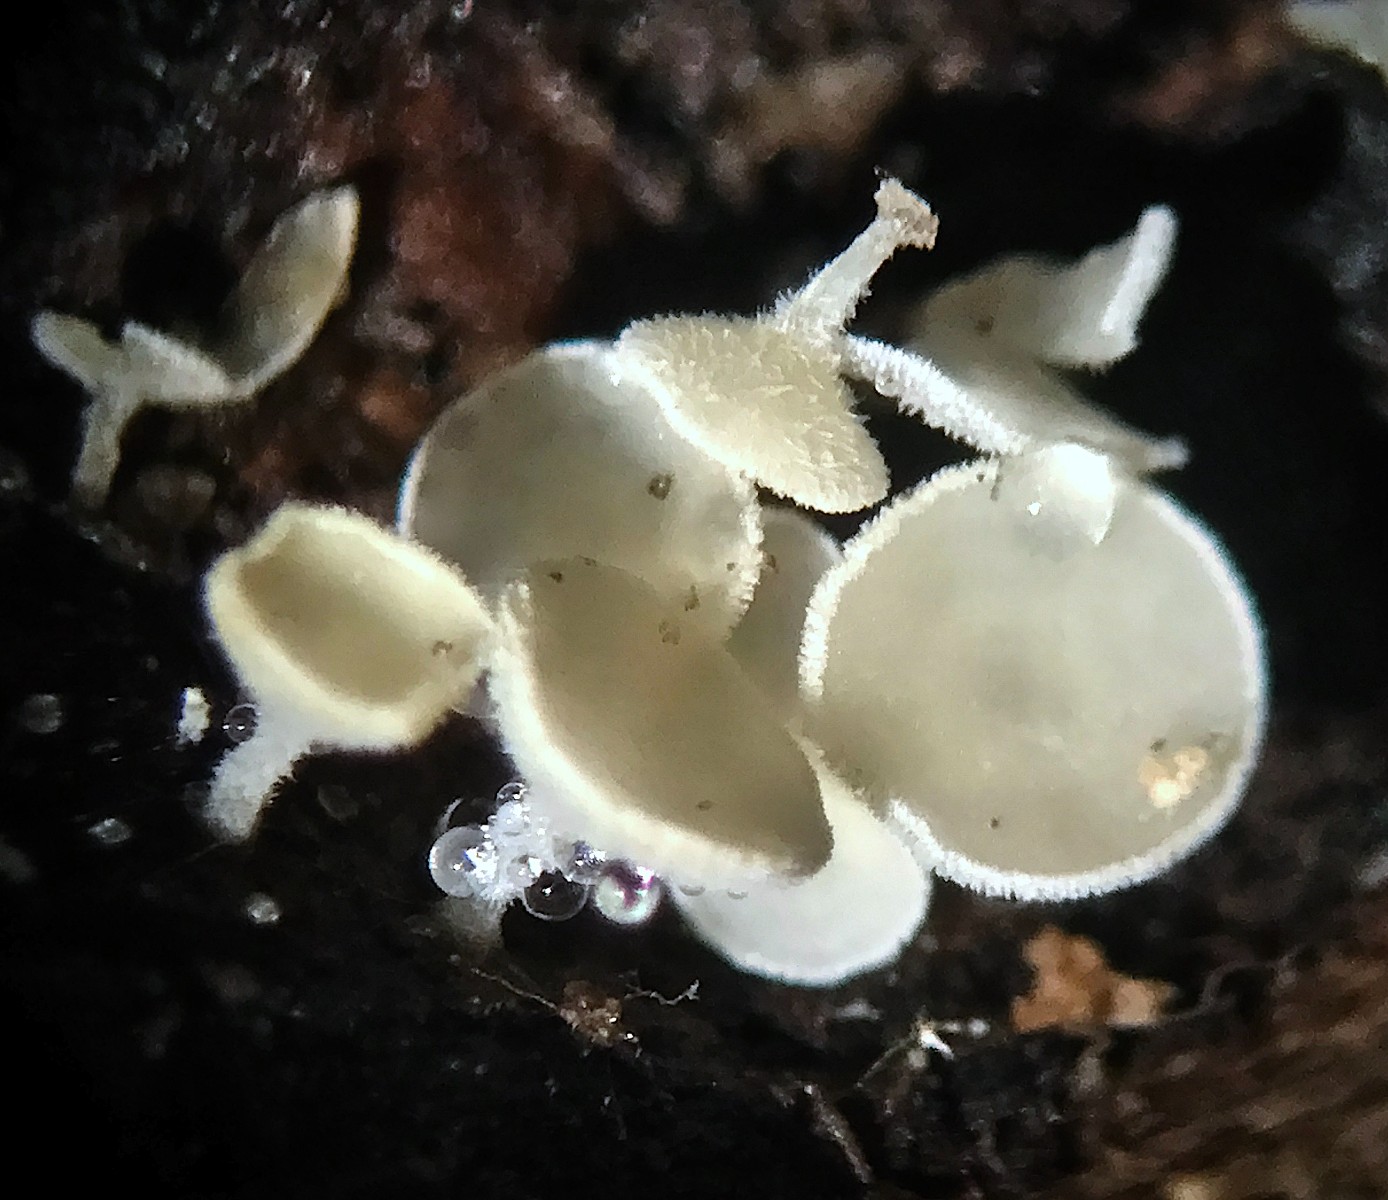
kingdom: Fungi
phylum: Ascomycota
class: Leotiomycetes
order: Helotiales
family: Lachnaceae
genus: Lachnum
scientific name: Lachnum
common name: frynseskive
